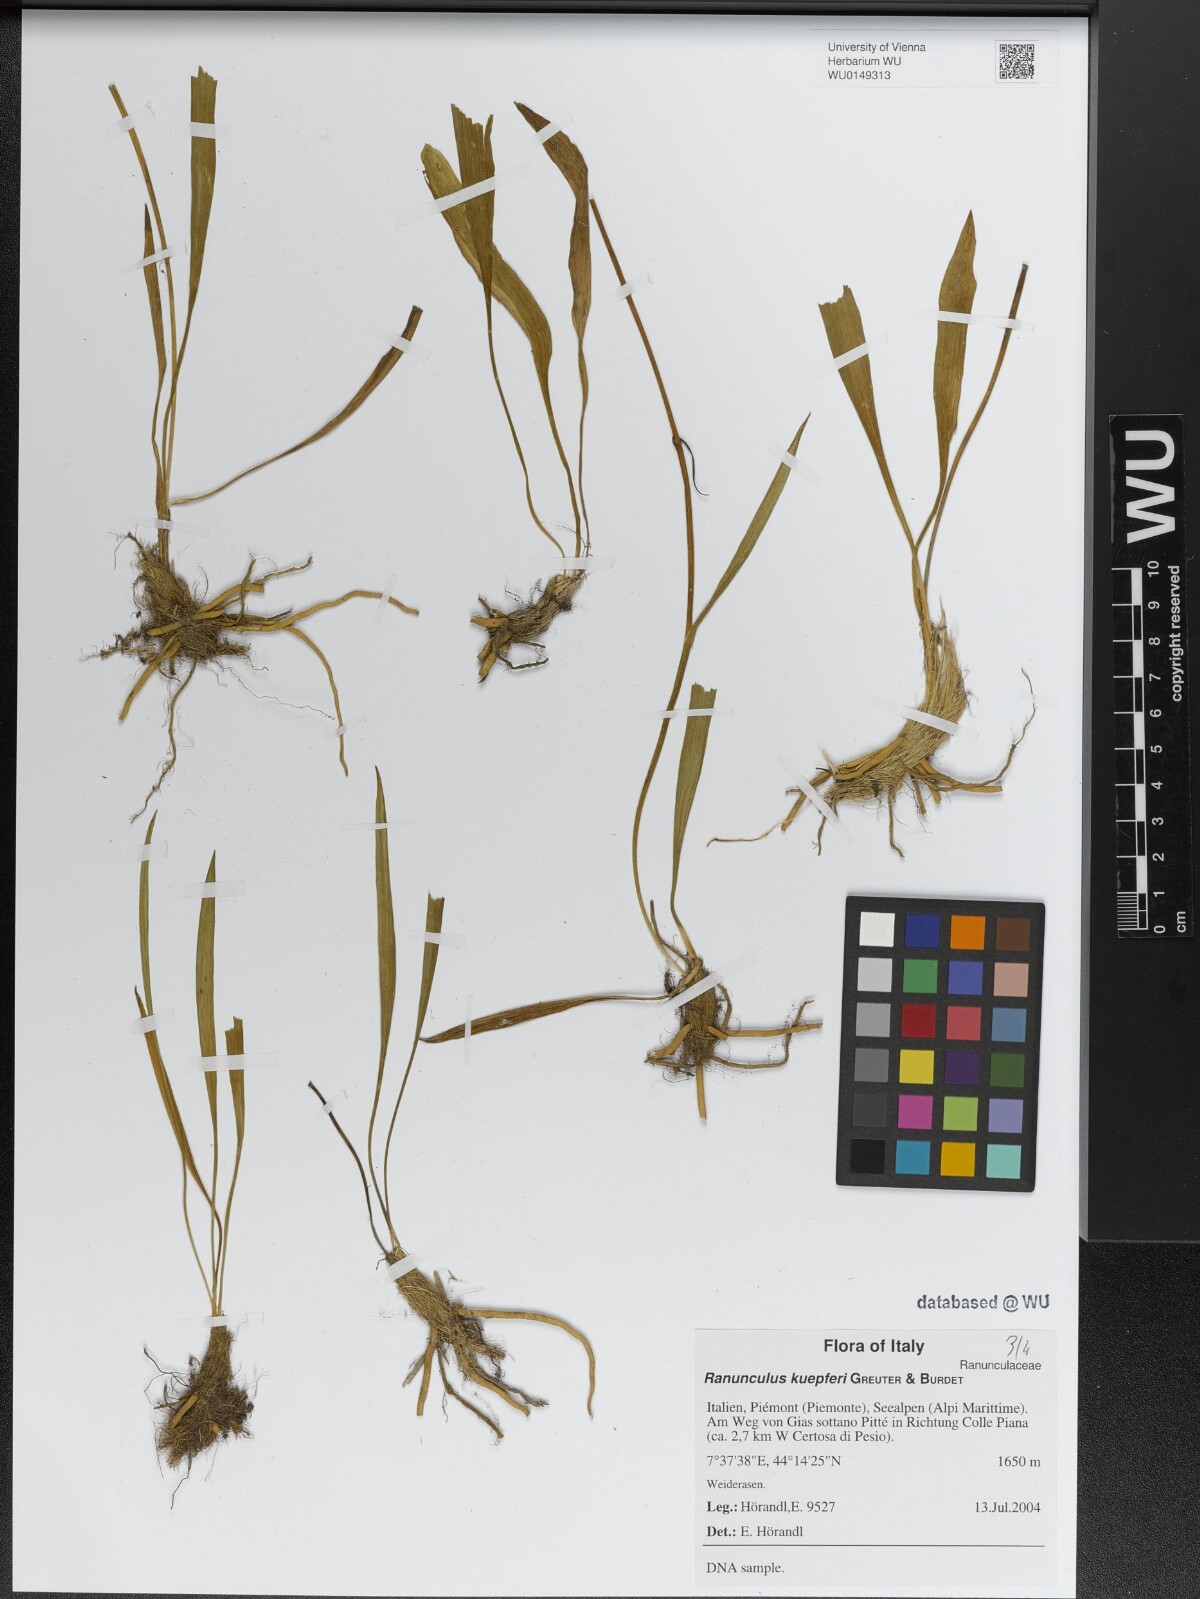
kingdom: Plantae
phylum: Tracheophyta
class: Magnoliopsida
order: Ranunculales
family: Ranunculaceae
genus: Ranunculus
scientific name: Ranunculus kuepferi
